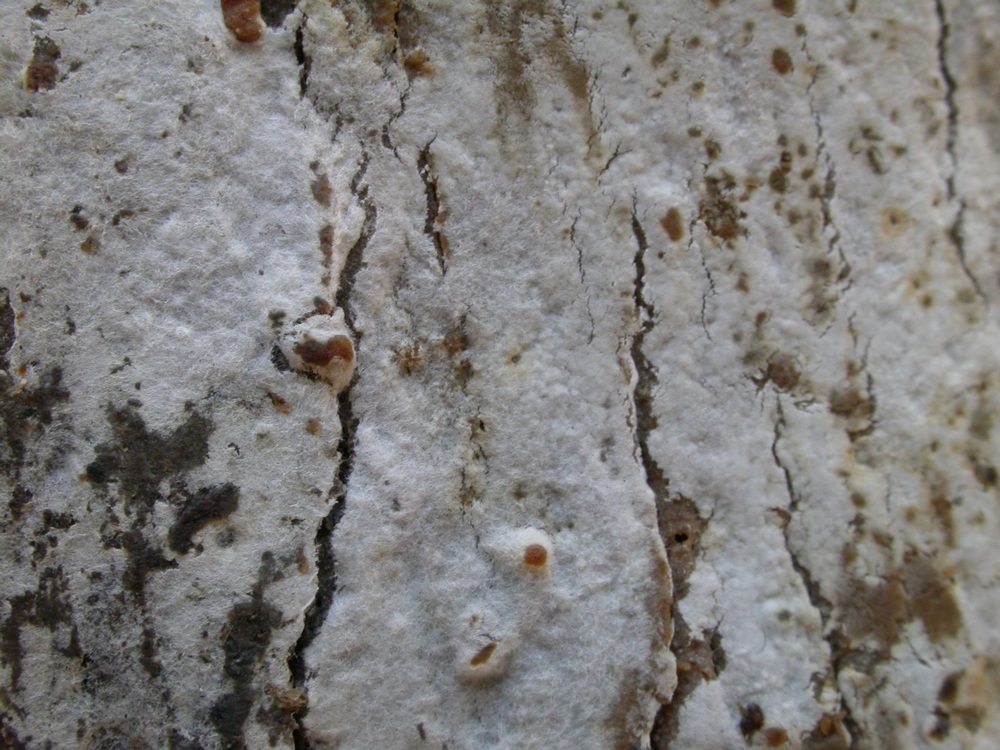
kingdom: Fungi
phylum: Basidiomycota
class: Agaricomycetes
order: Atheliales
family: Atheliaceae
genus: Athelia
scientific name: Athelia epiphylla
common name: almindelig barkhinde
